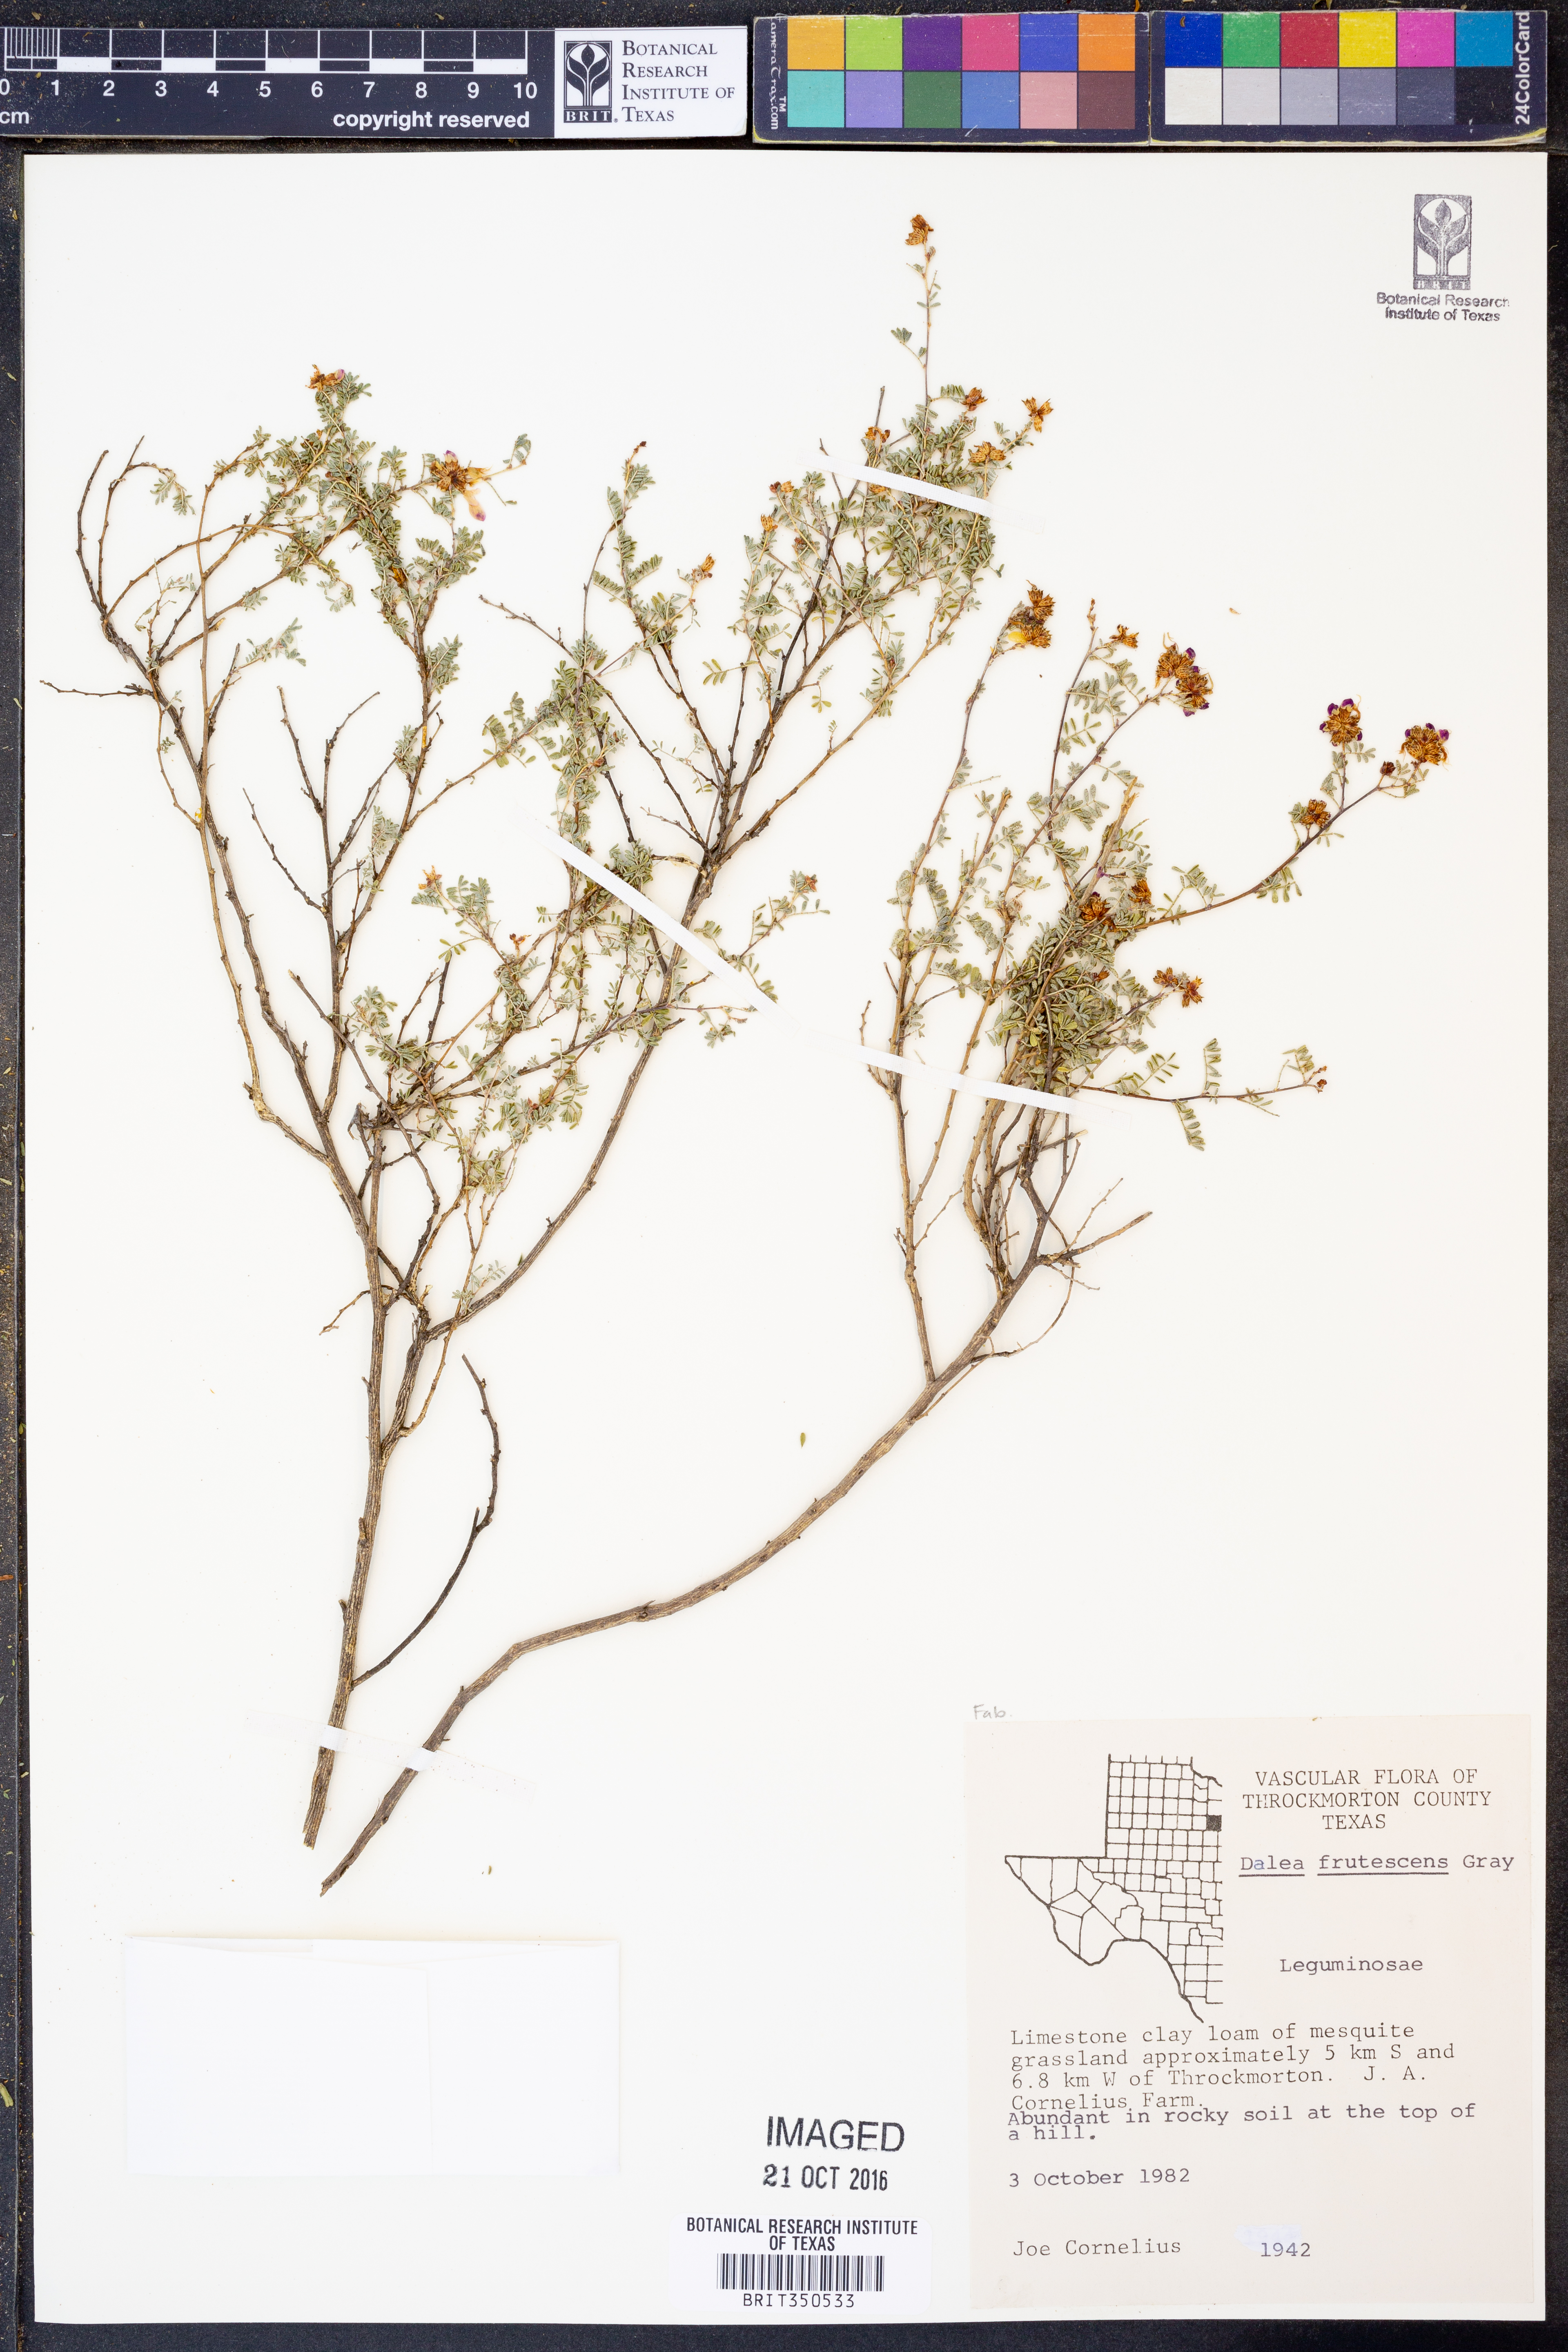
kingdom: Plantae
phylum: Tracheophyta
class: Magnoliopsida
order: Fabales
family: Fabaceae
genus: Dalea
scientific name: Dalea frutescens
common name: Black dalea
